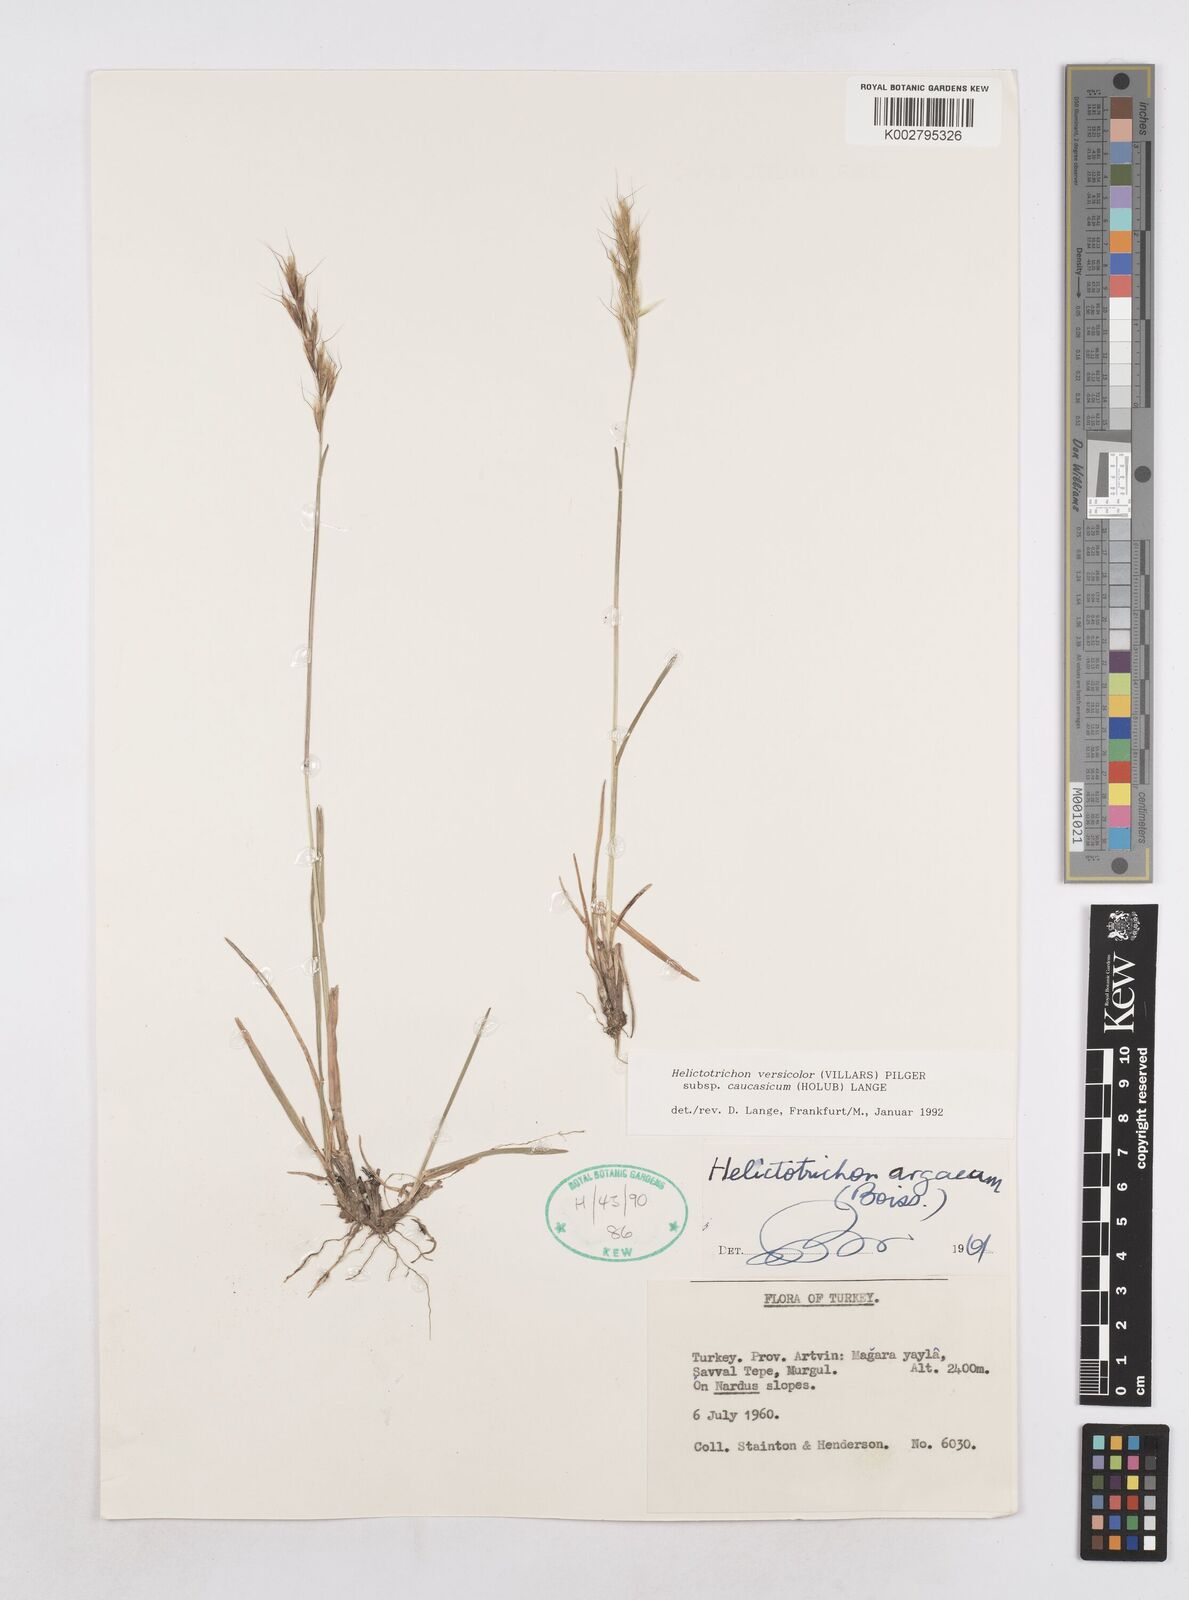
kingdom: Plantae
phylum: Tracheophyta
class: Liliopsida
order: Poales
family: Poaceae
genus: Helictochloa
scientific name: Helictochloa versicolor
